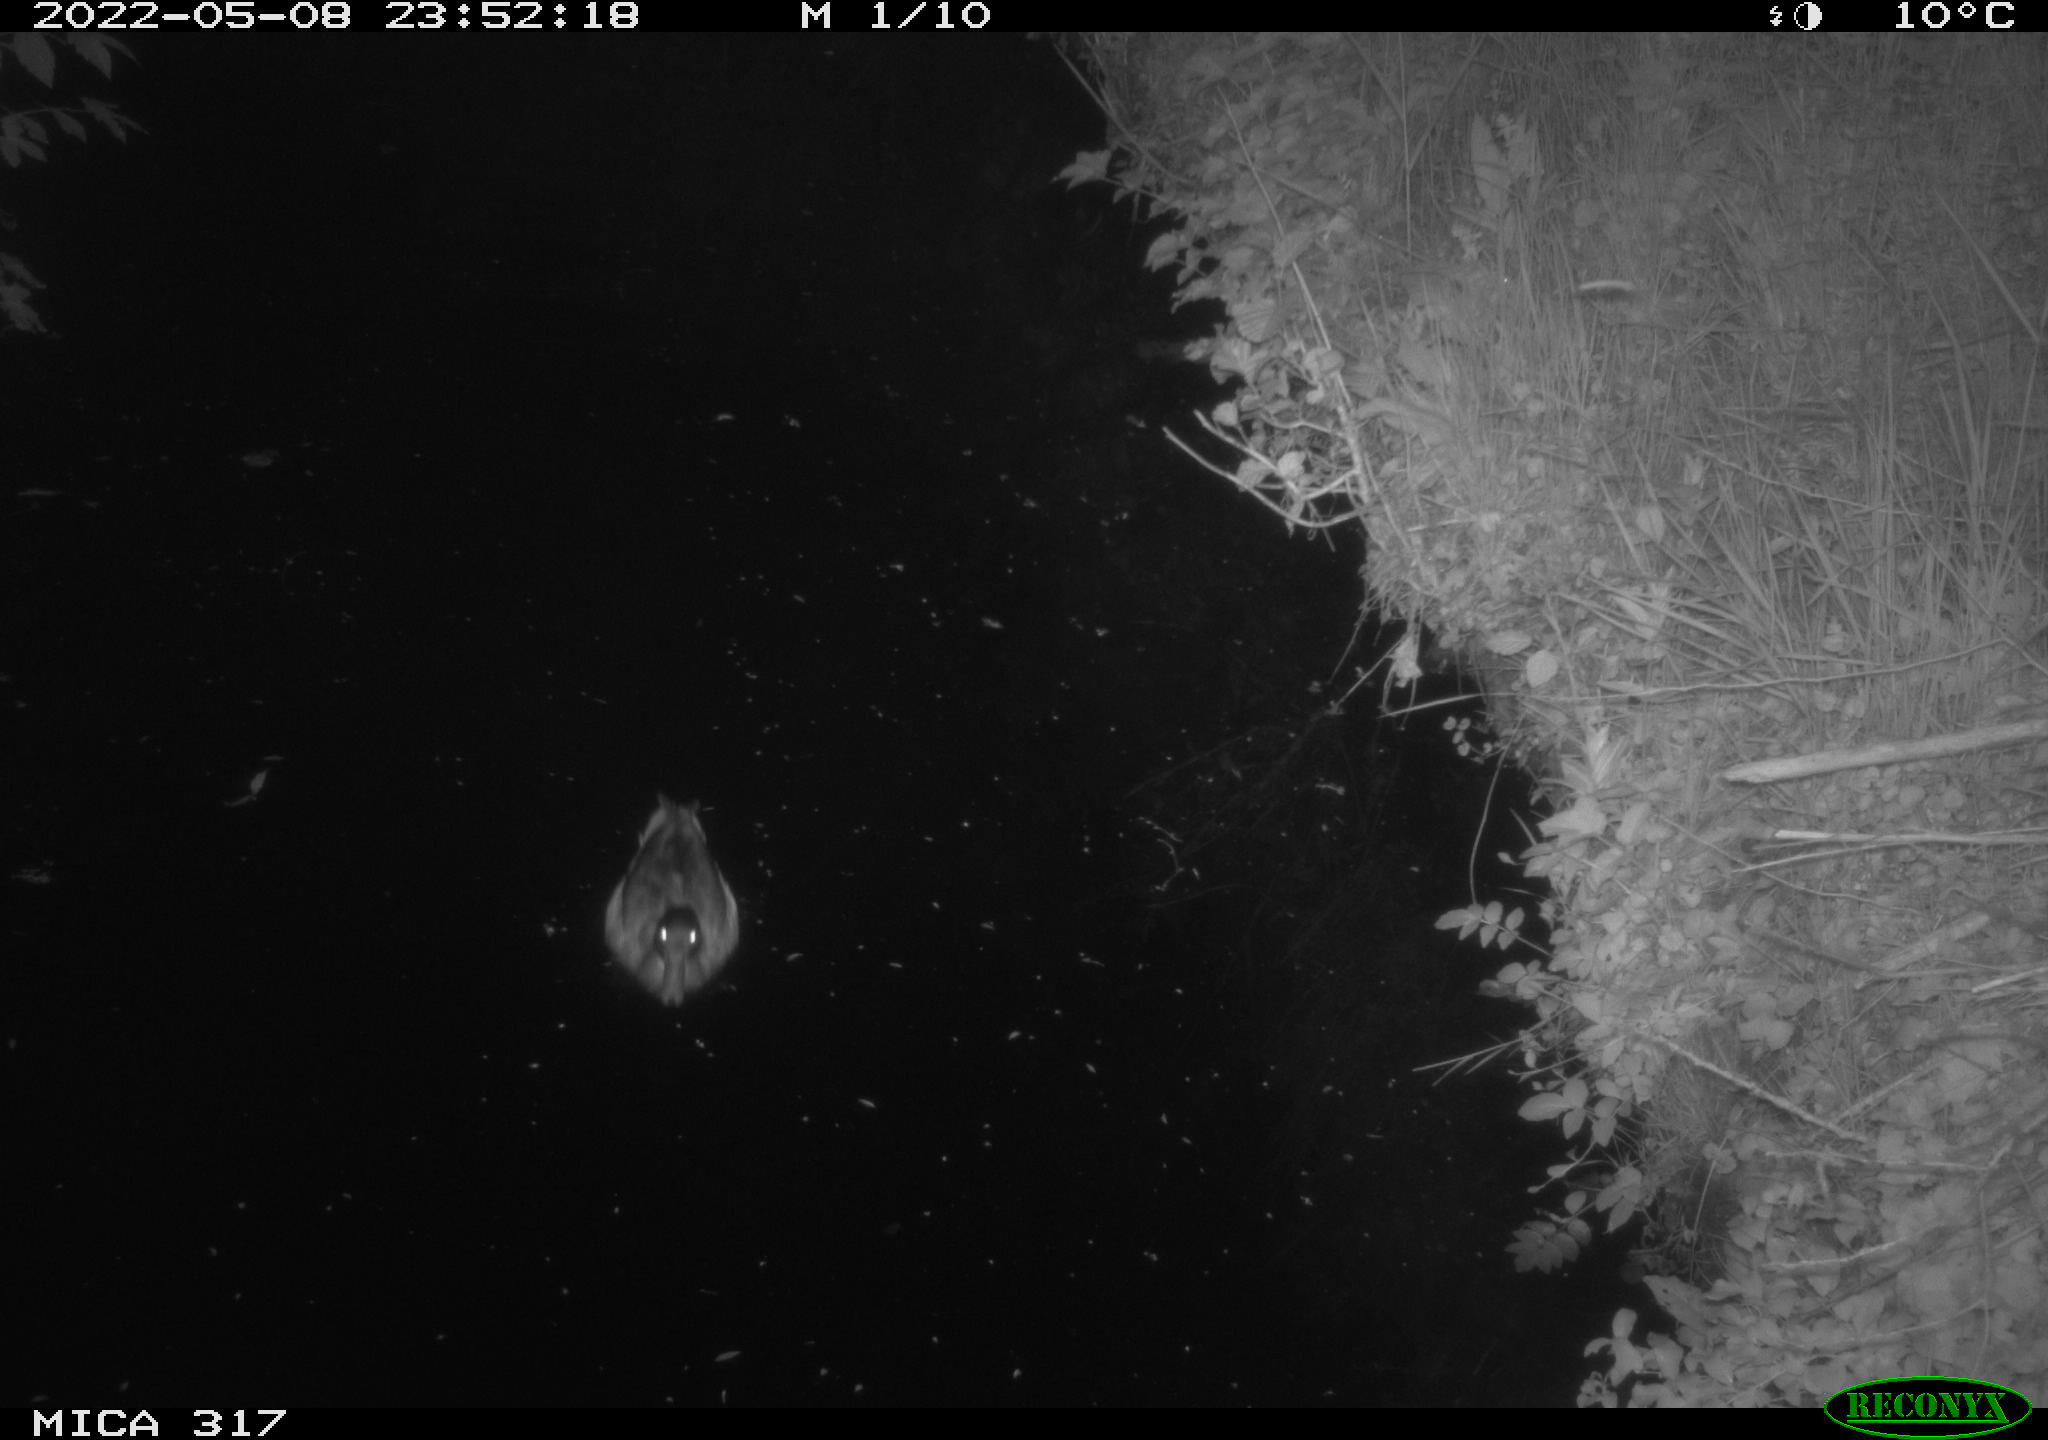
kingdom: Animalia
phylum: Chordata
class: Aves
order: Anseriformes
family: Anatidae
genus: Anas
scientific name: Anas platyrhynchos
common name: Mallard
